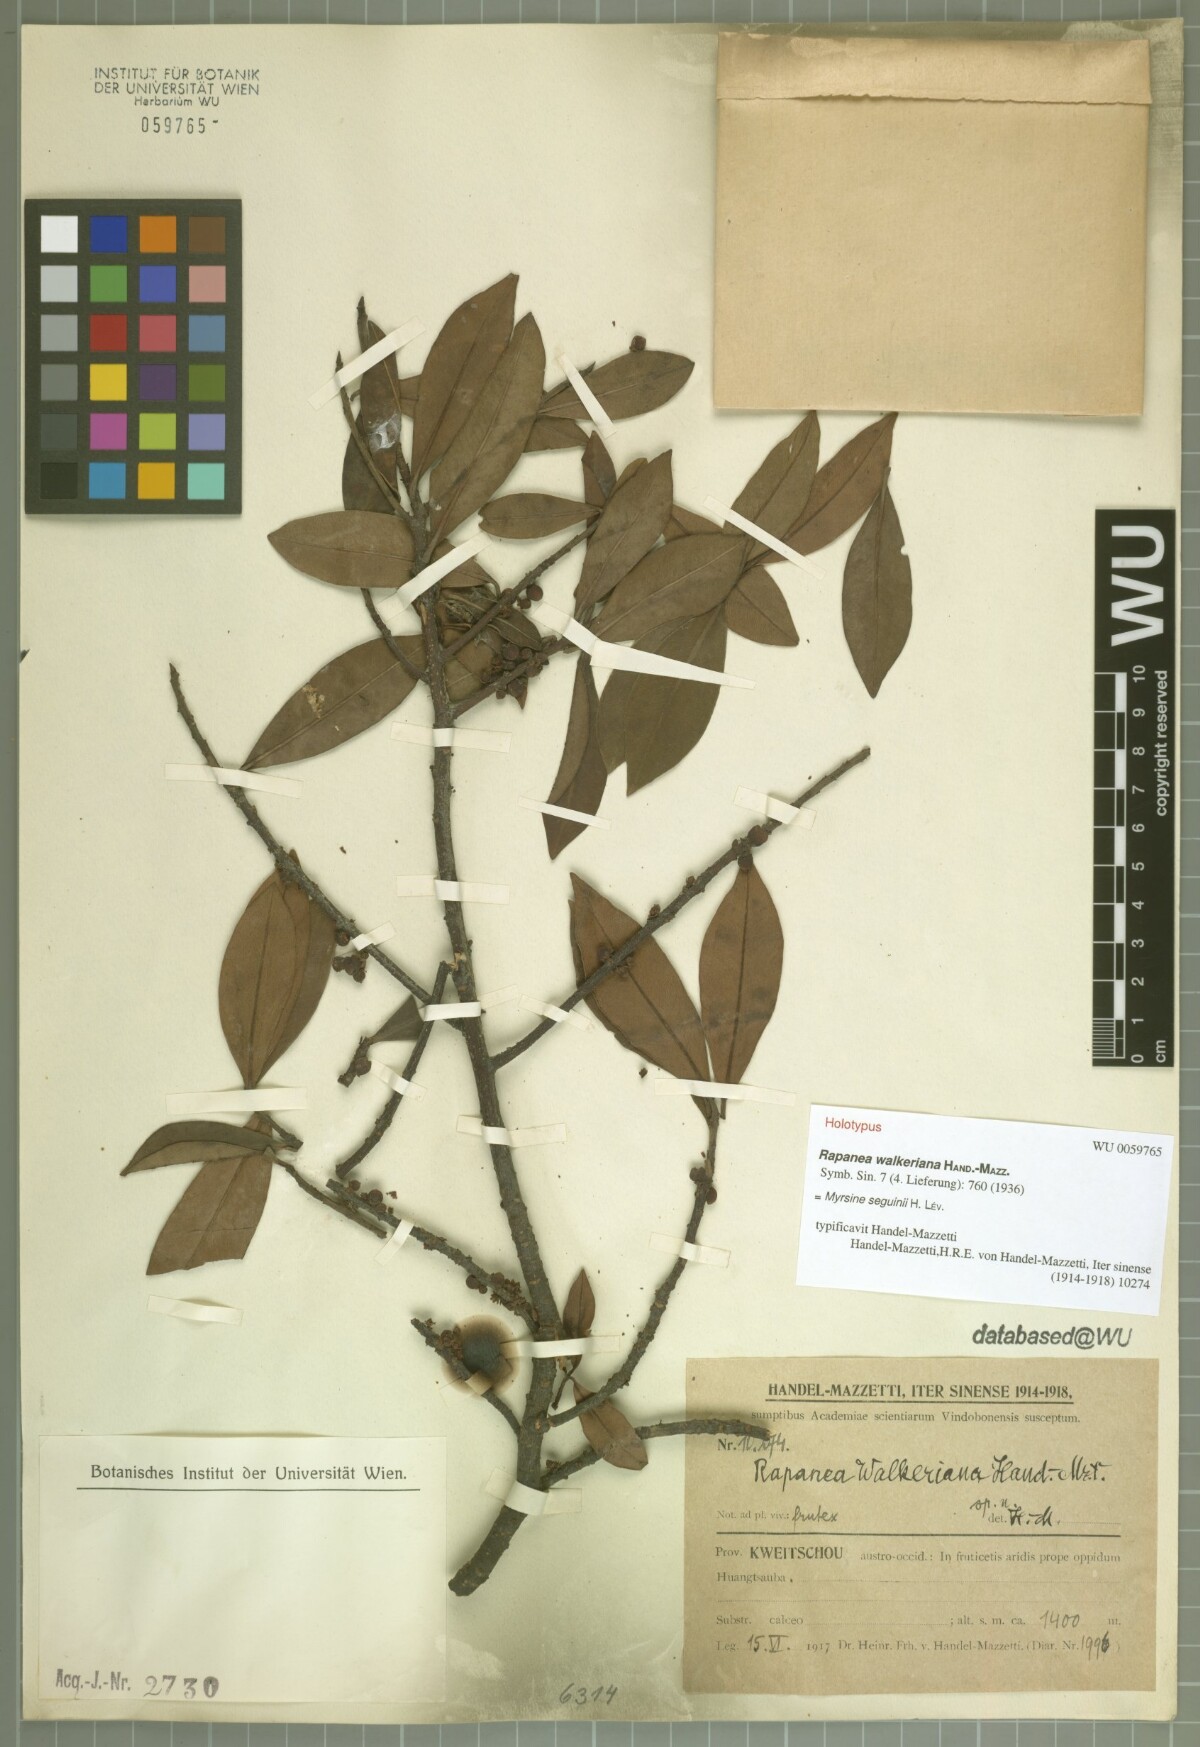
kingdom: Plantae
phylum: Tracheophyta
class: Magnoliopsida
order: Ericales
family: Primulaceae
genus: Myrsine
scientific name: Myrsine seguinii
